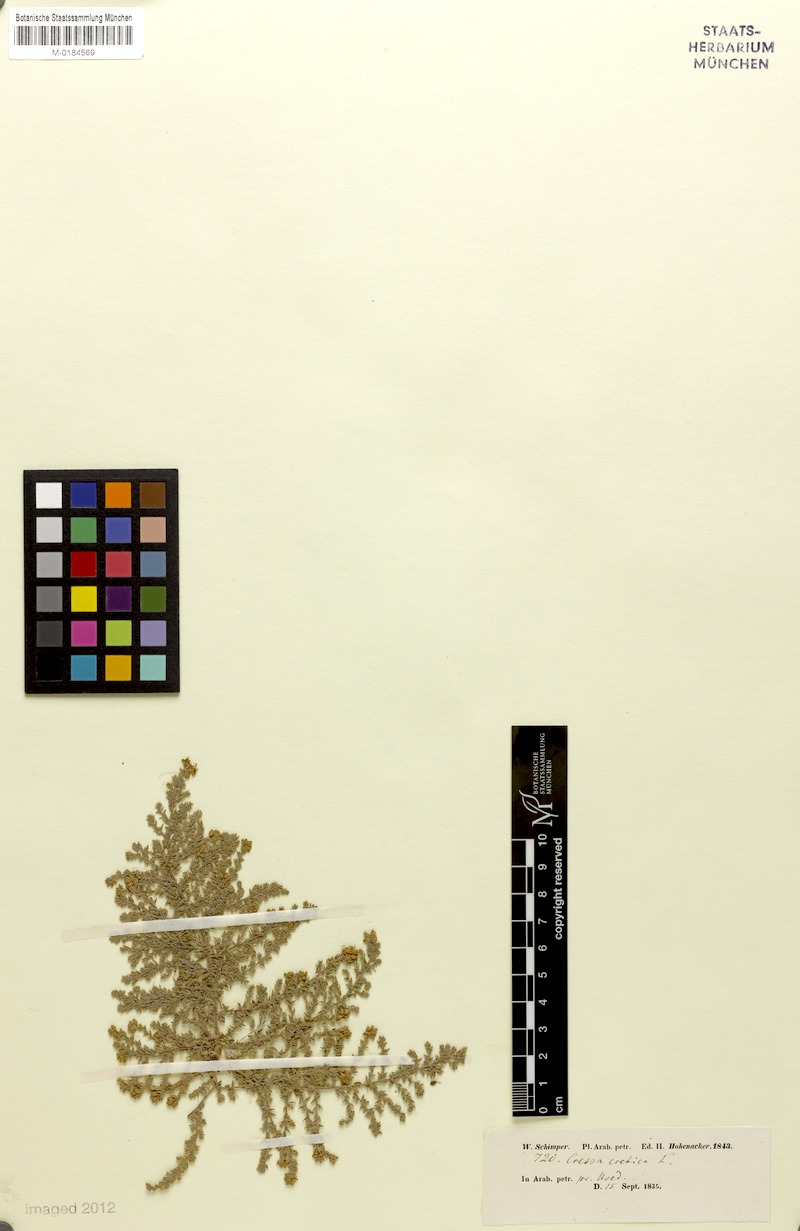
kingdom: Plantae
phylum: Tracheophyta
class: Magnoliopsida
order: Solanales
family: Convolvulaceae
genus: Cressa
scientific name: Cressa cretica
